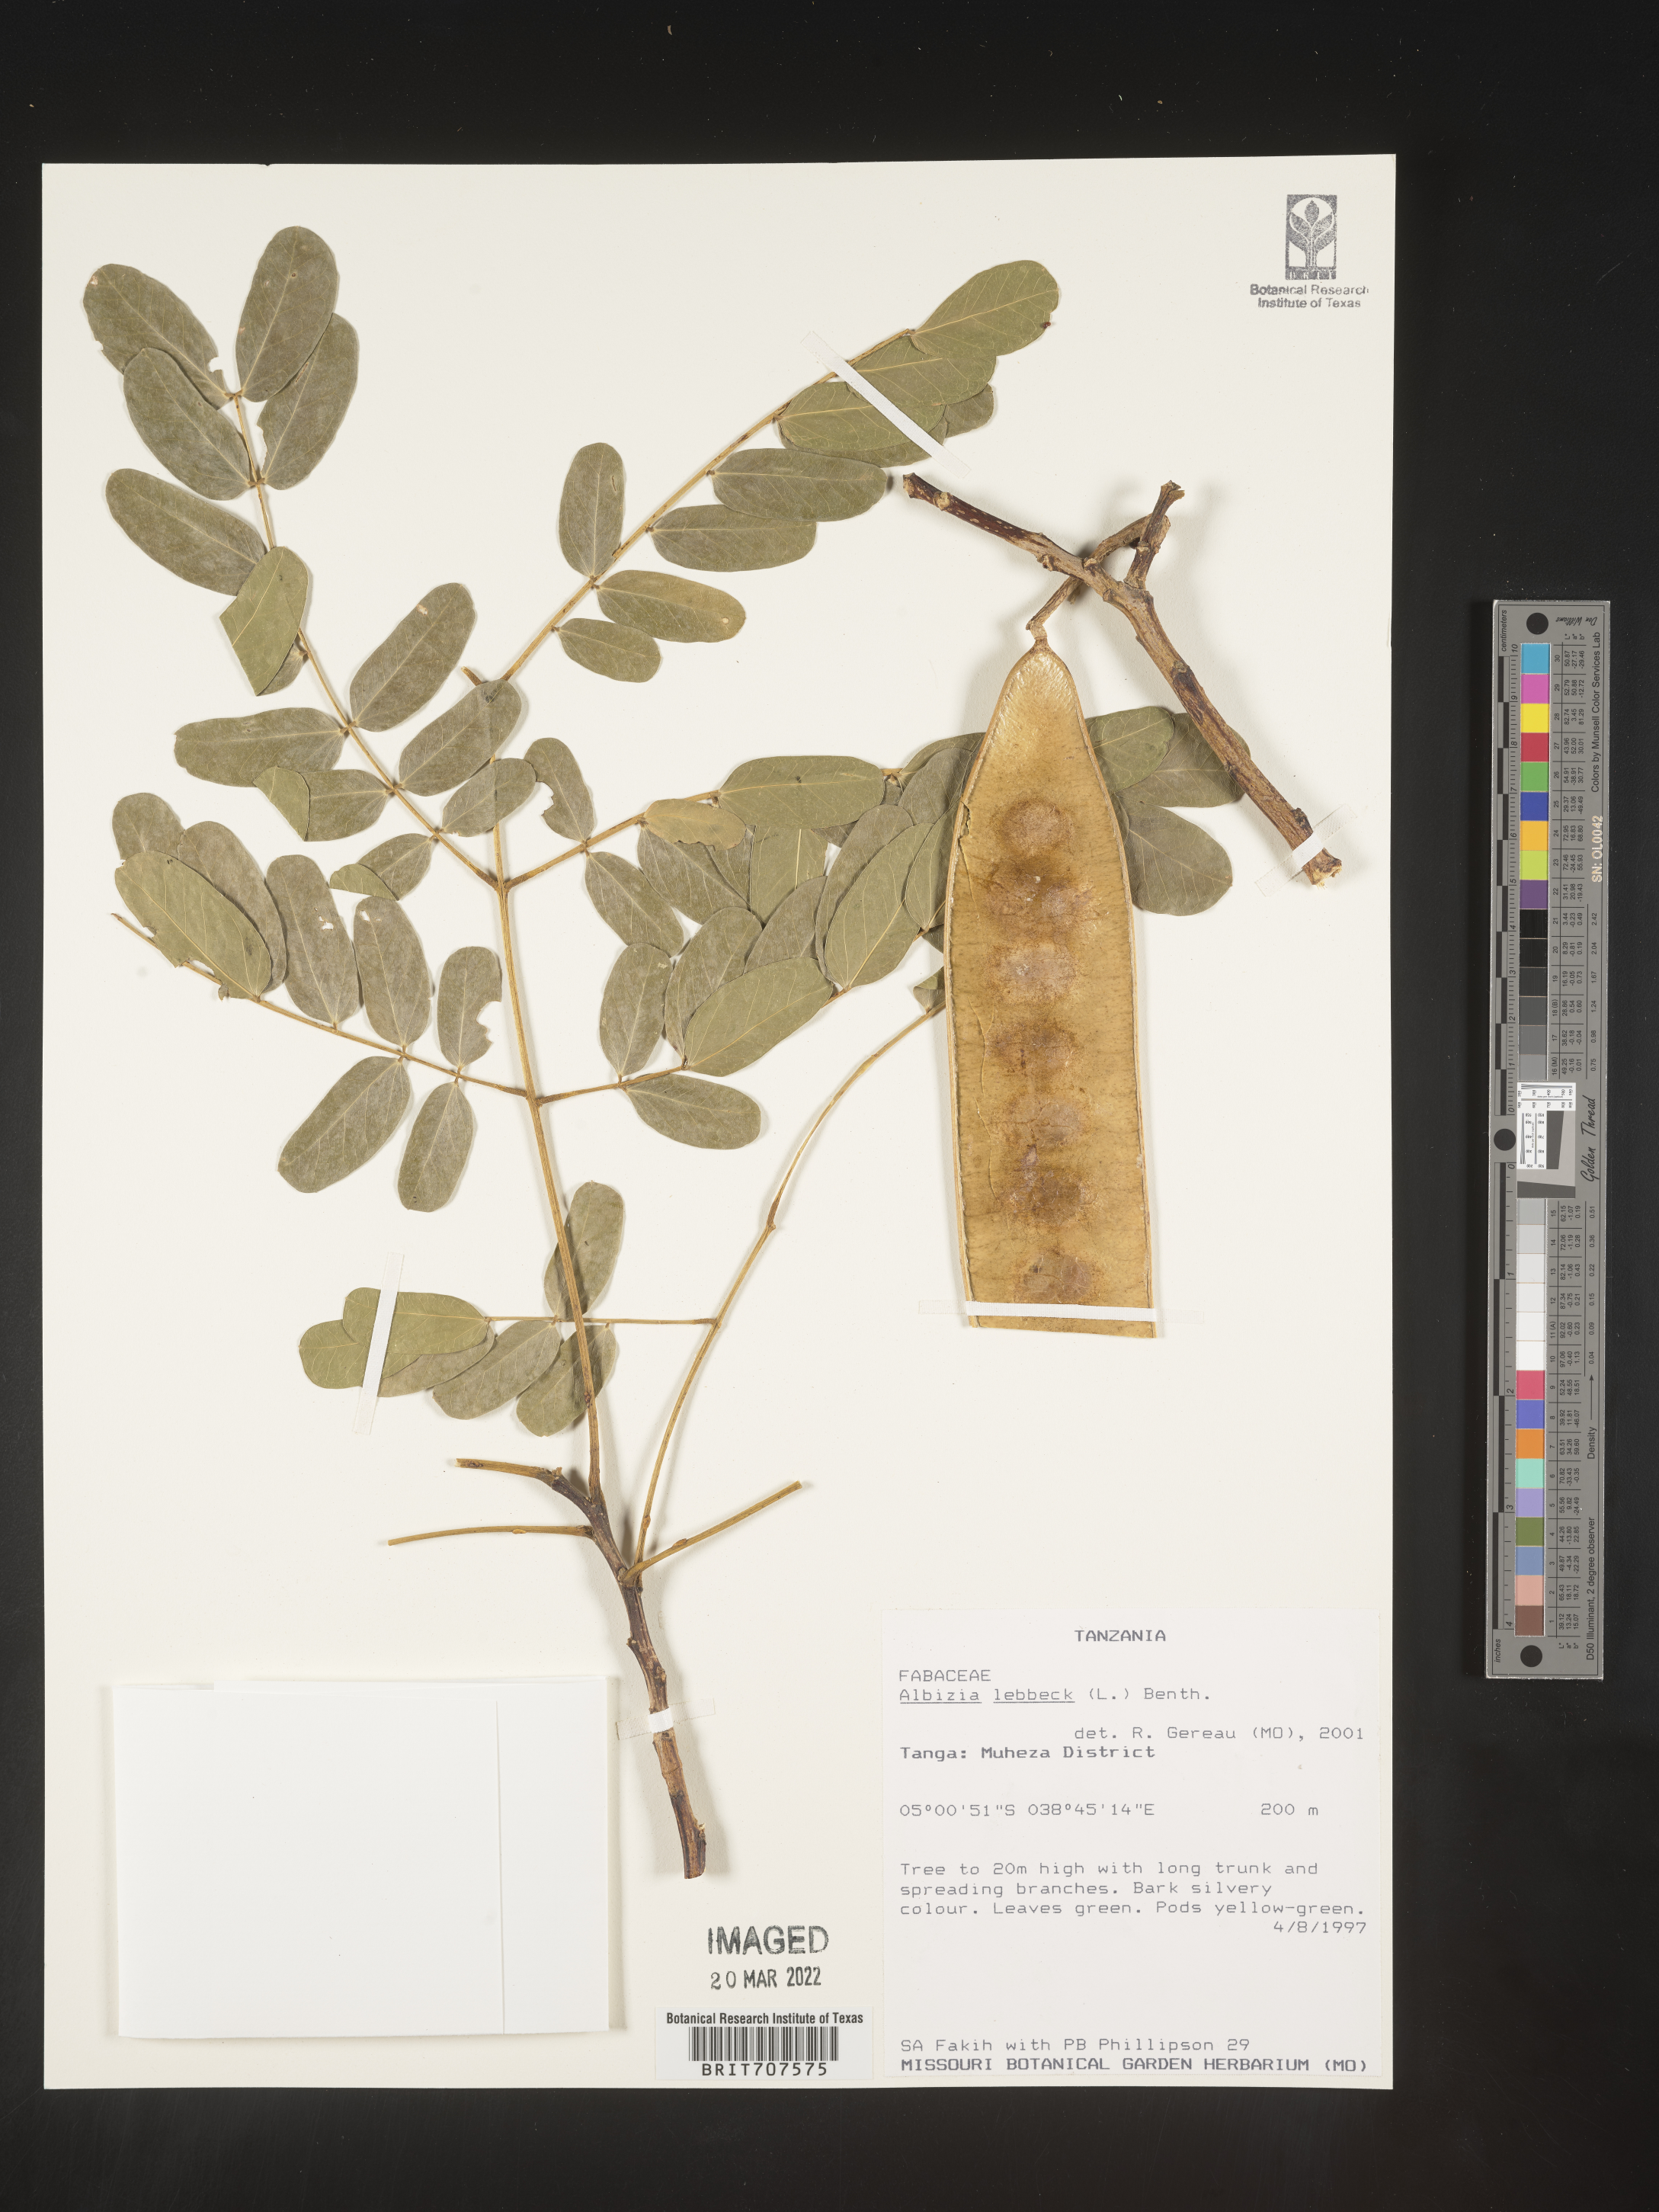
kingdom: Plantae
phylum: Tracheophyta
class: Magnoliopsida
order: Fabales
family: Fabaceae
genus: Albizia
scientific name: Albizia
